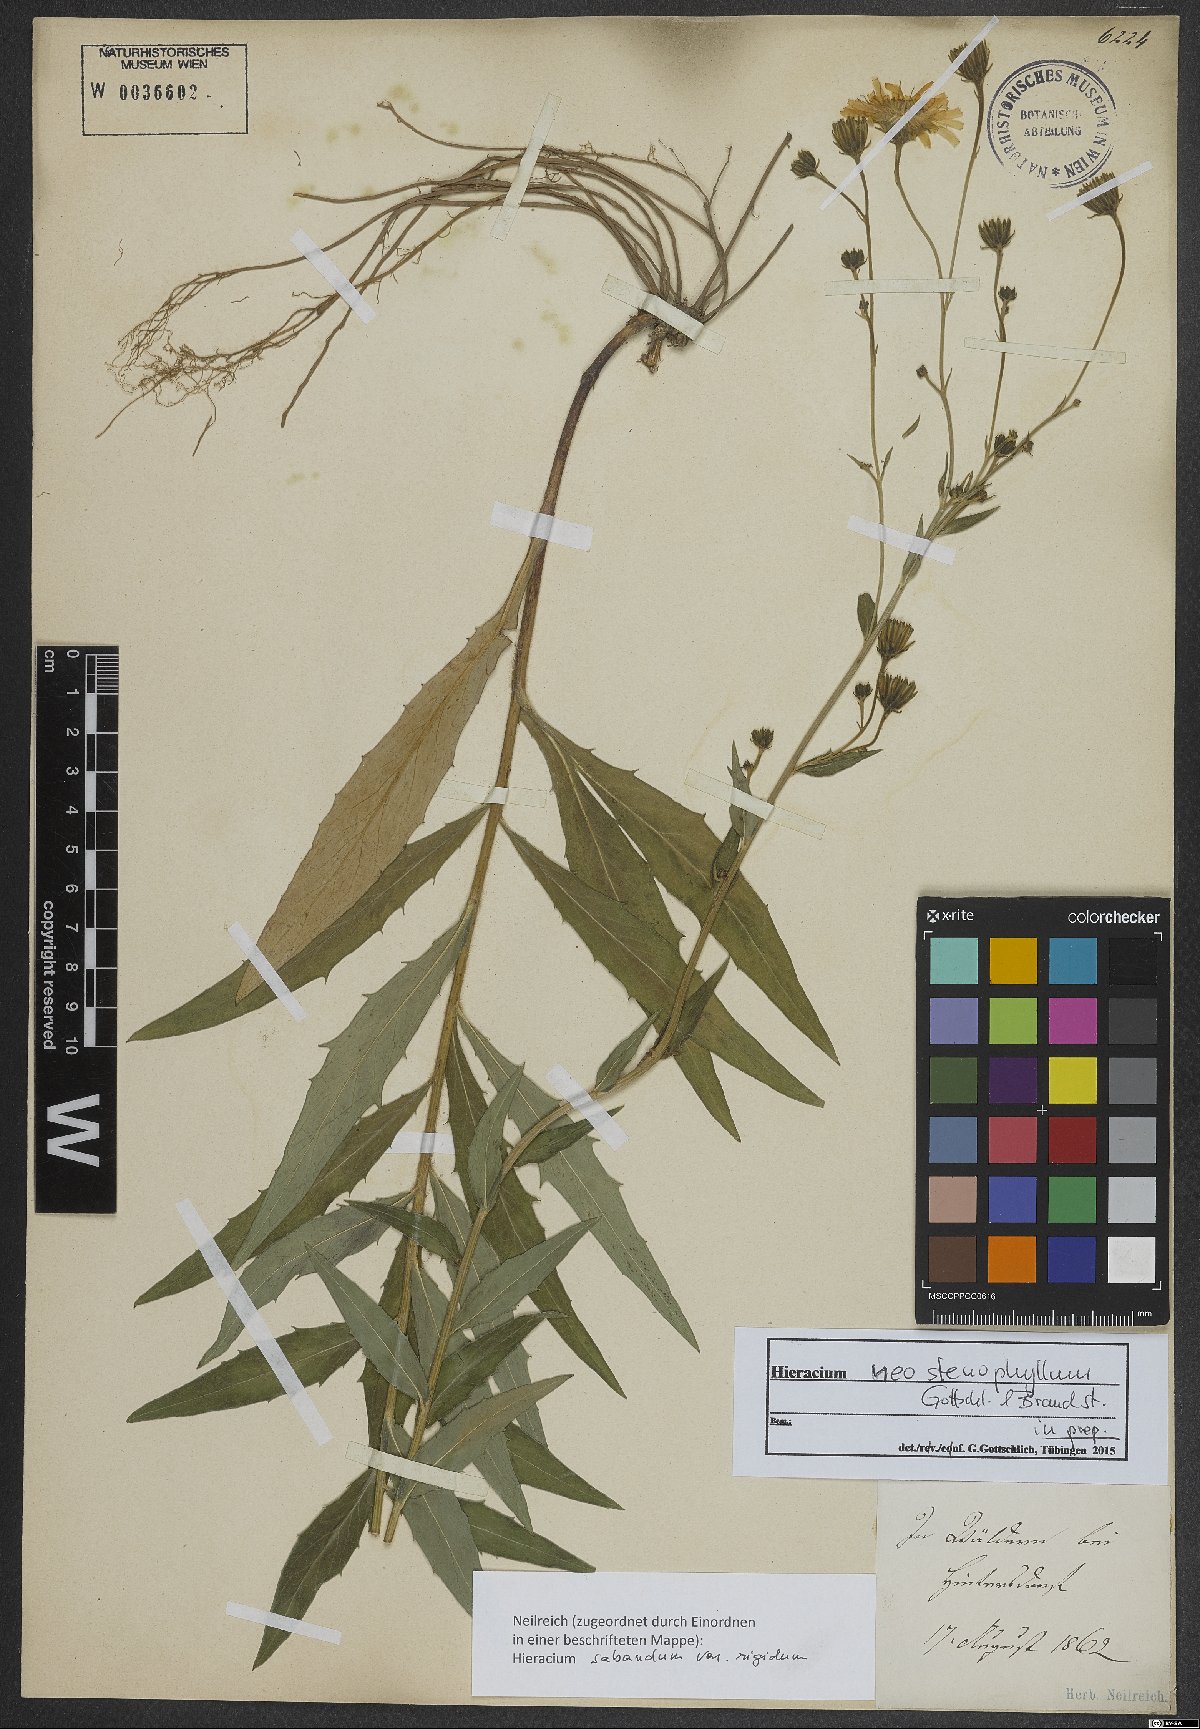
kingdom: Plantae
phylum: Tracheophyta
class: Magnoliopsida
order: Asterales
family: Asteraceae
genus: Hieracium
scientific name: Hieracium neostenophyllum
